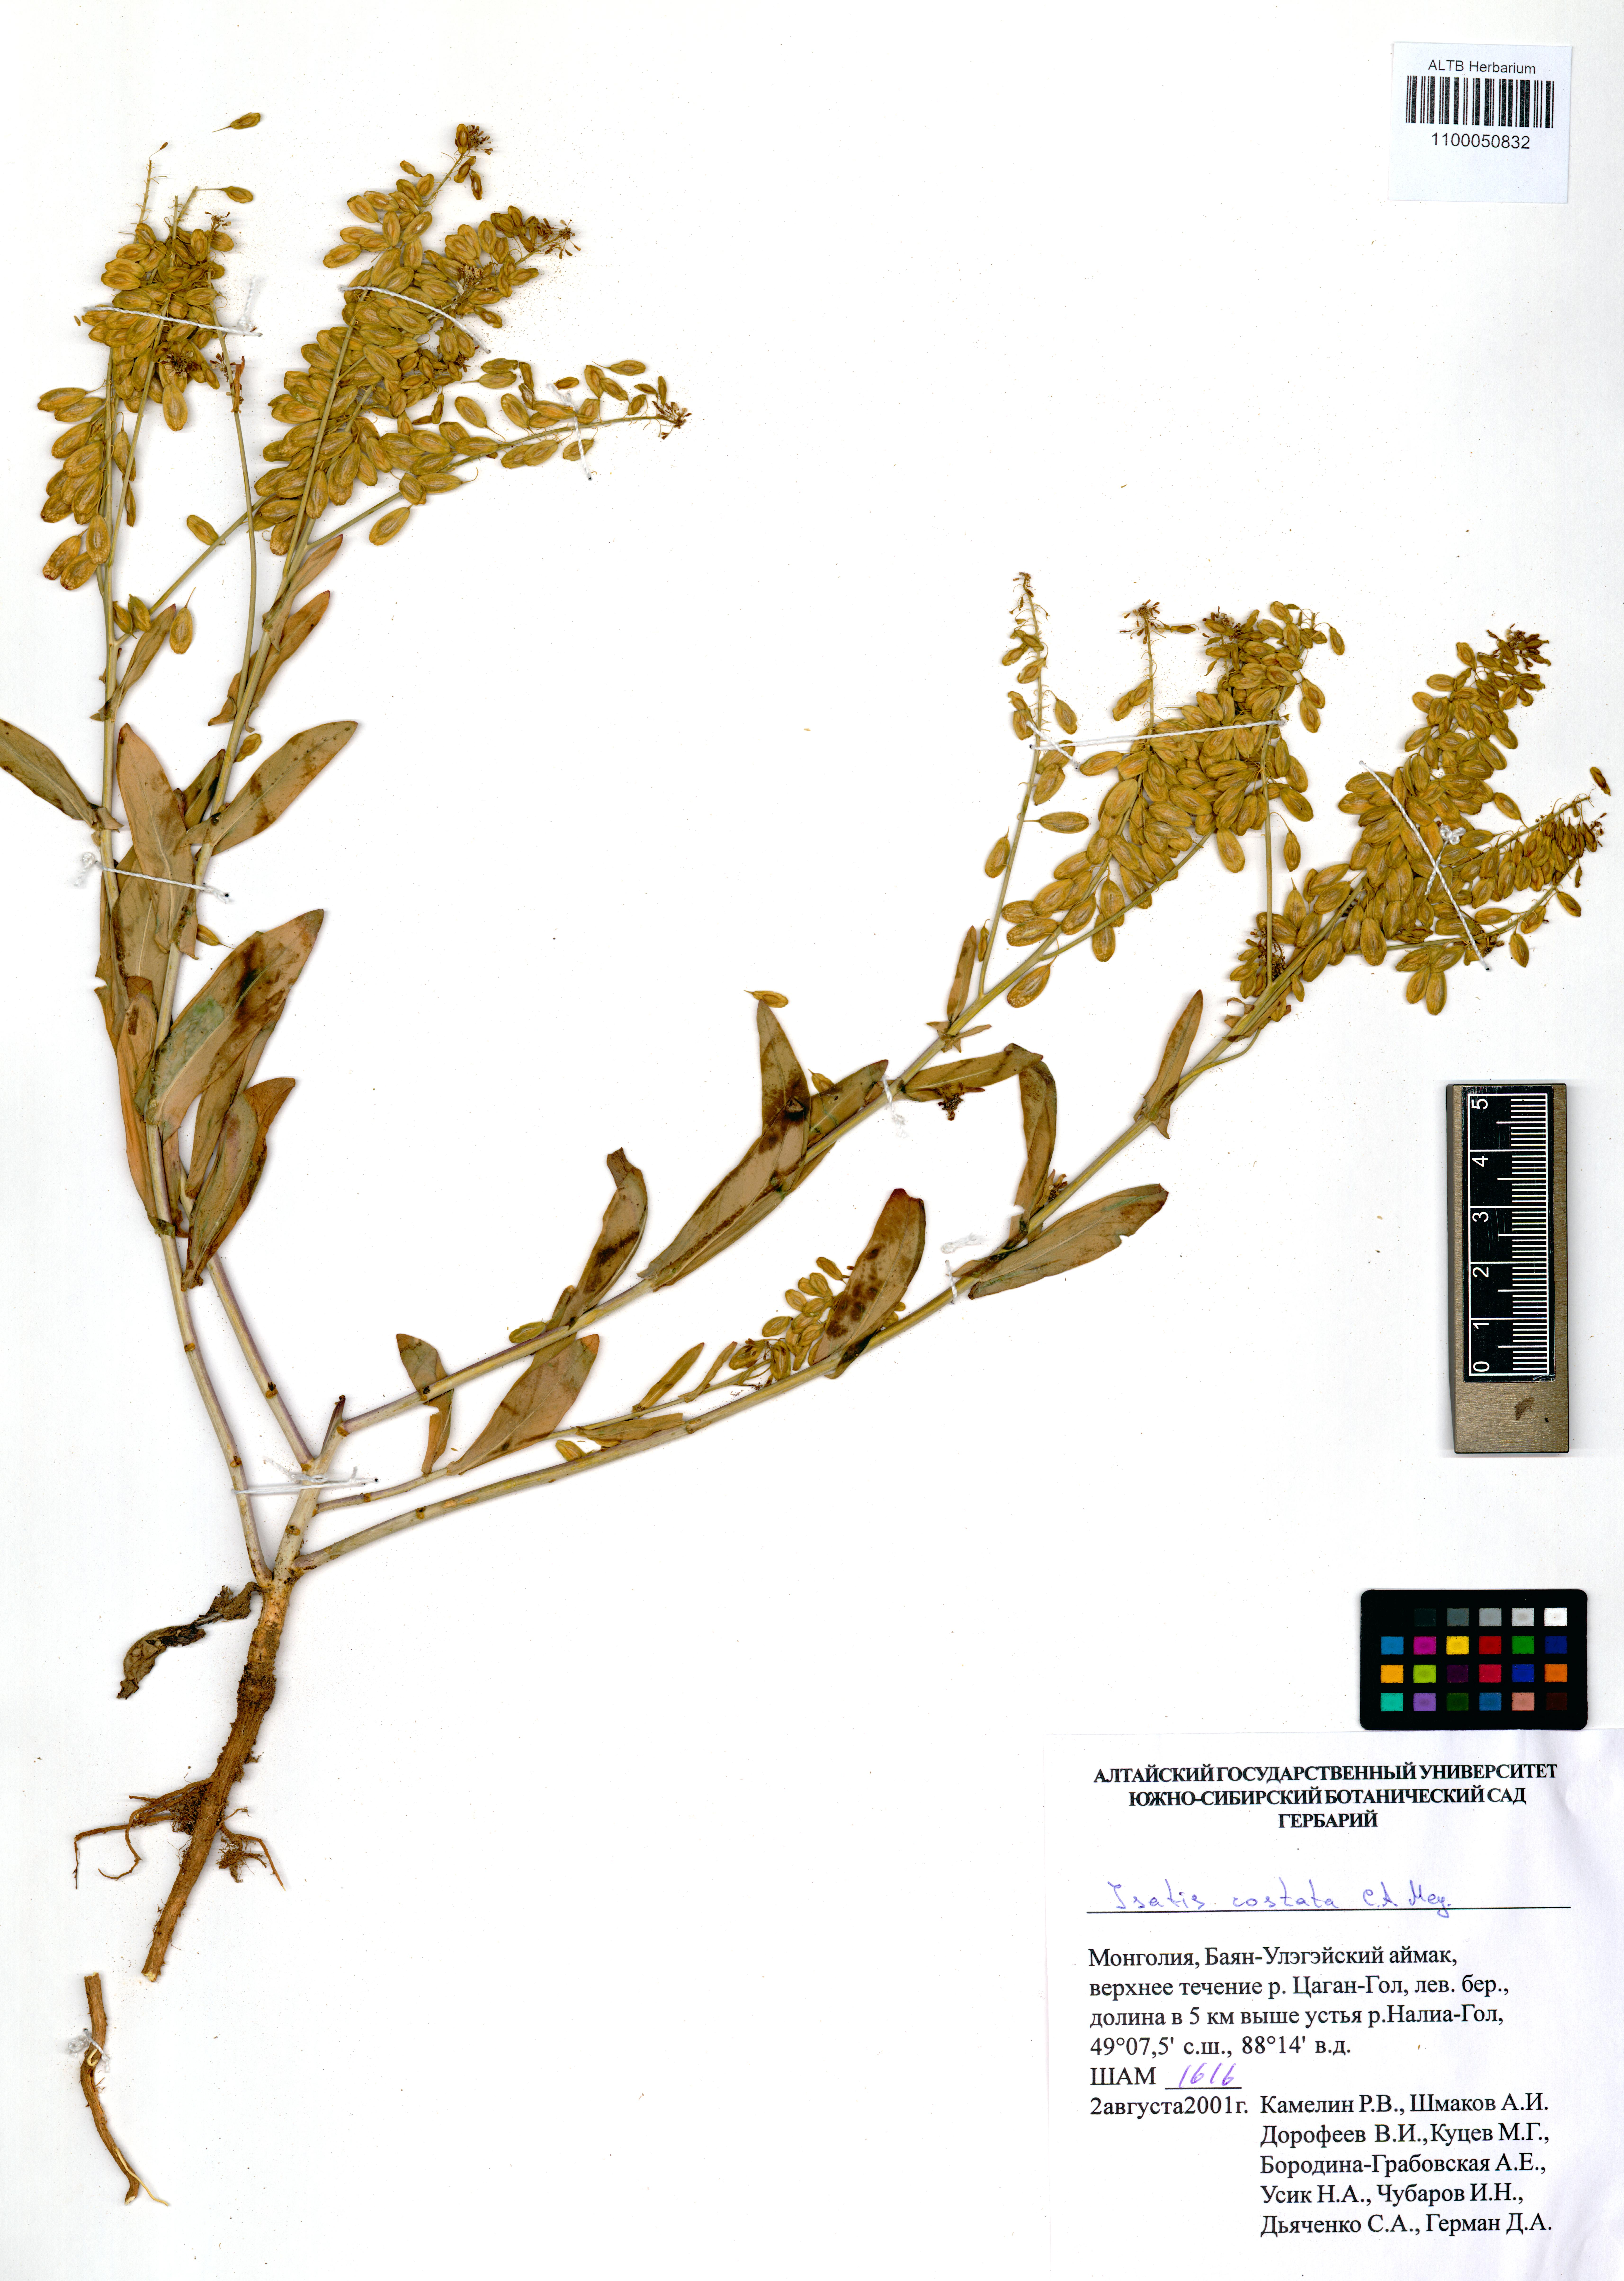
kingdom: Plantae
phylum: Tracheophyta
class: Magnoliopsida
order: Brassicales
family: Brassicaceae
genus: Isatis
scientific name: Isatis costata
